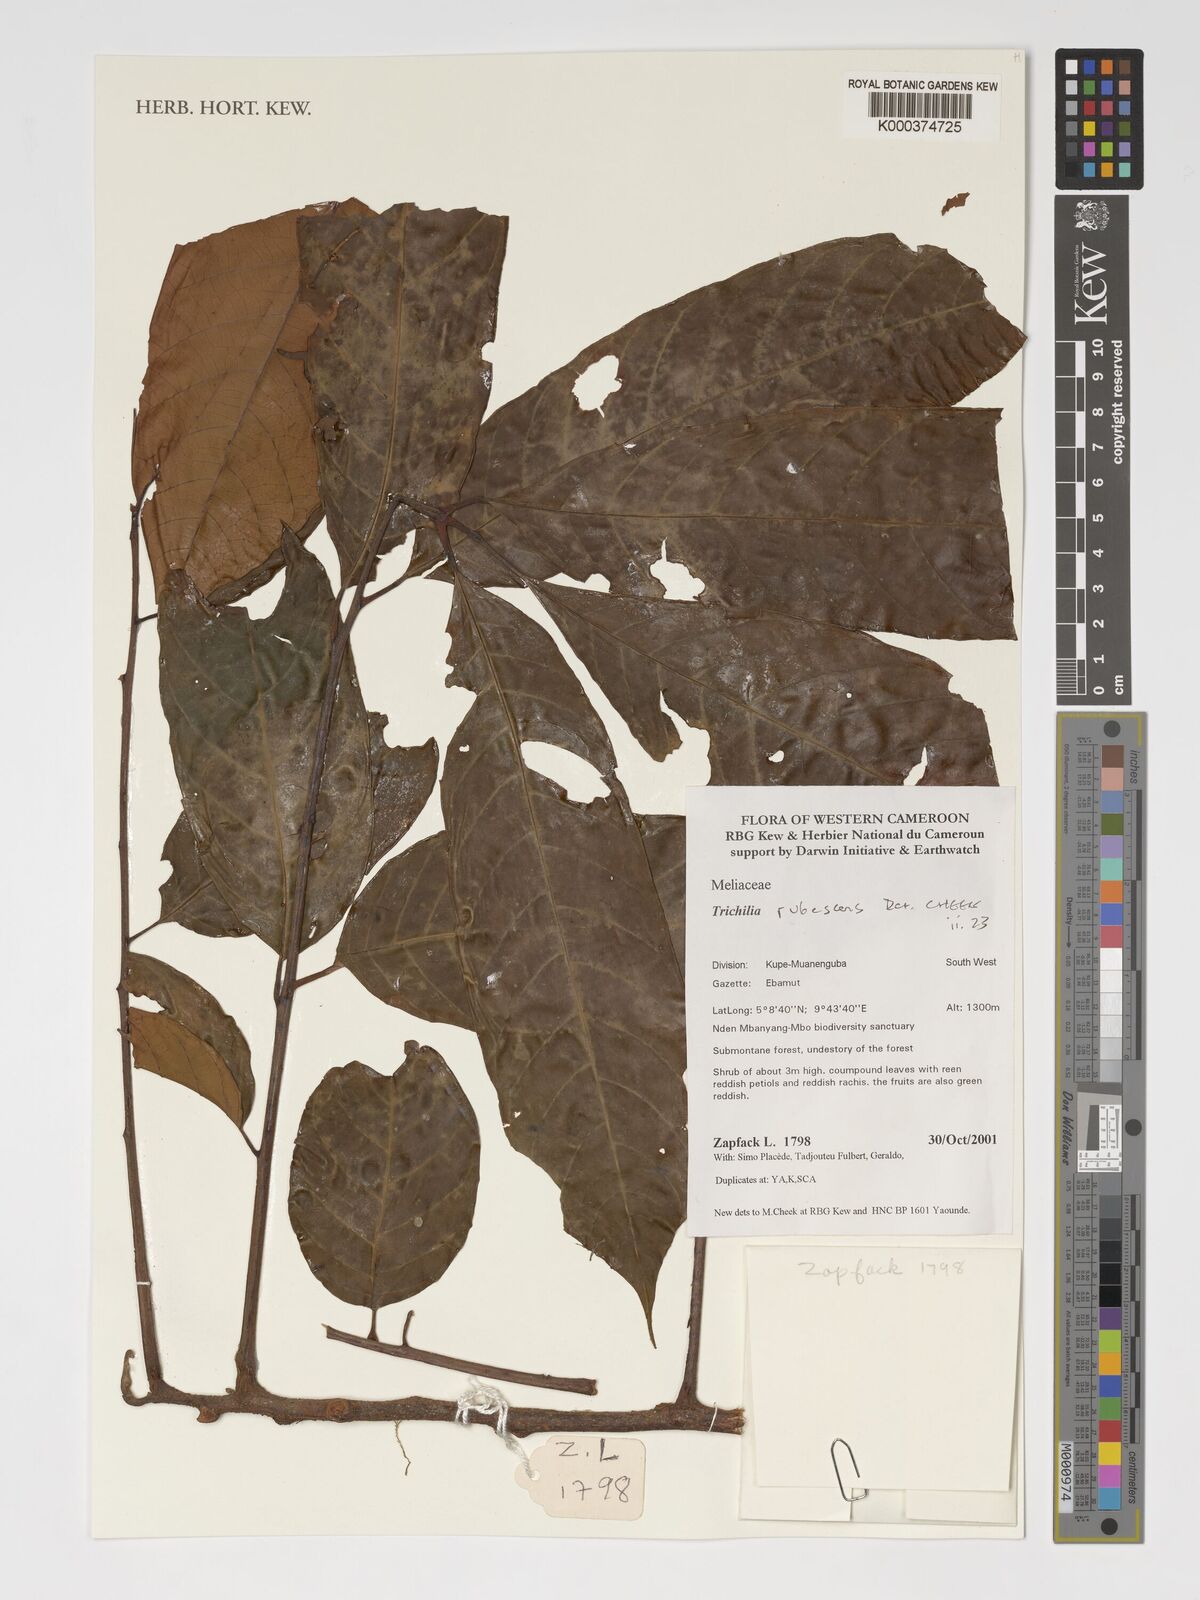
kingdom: Plantae
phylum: Tracheophyta
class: Magnoliopsida
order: Sapindales
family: Meliaceae
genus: Trichilia
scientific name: Trichilia rubescens
